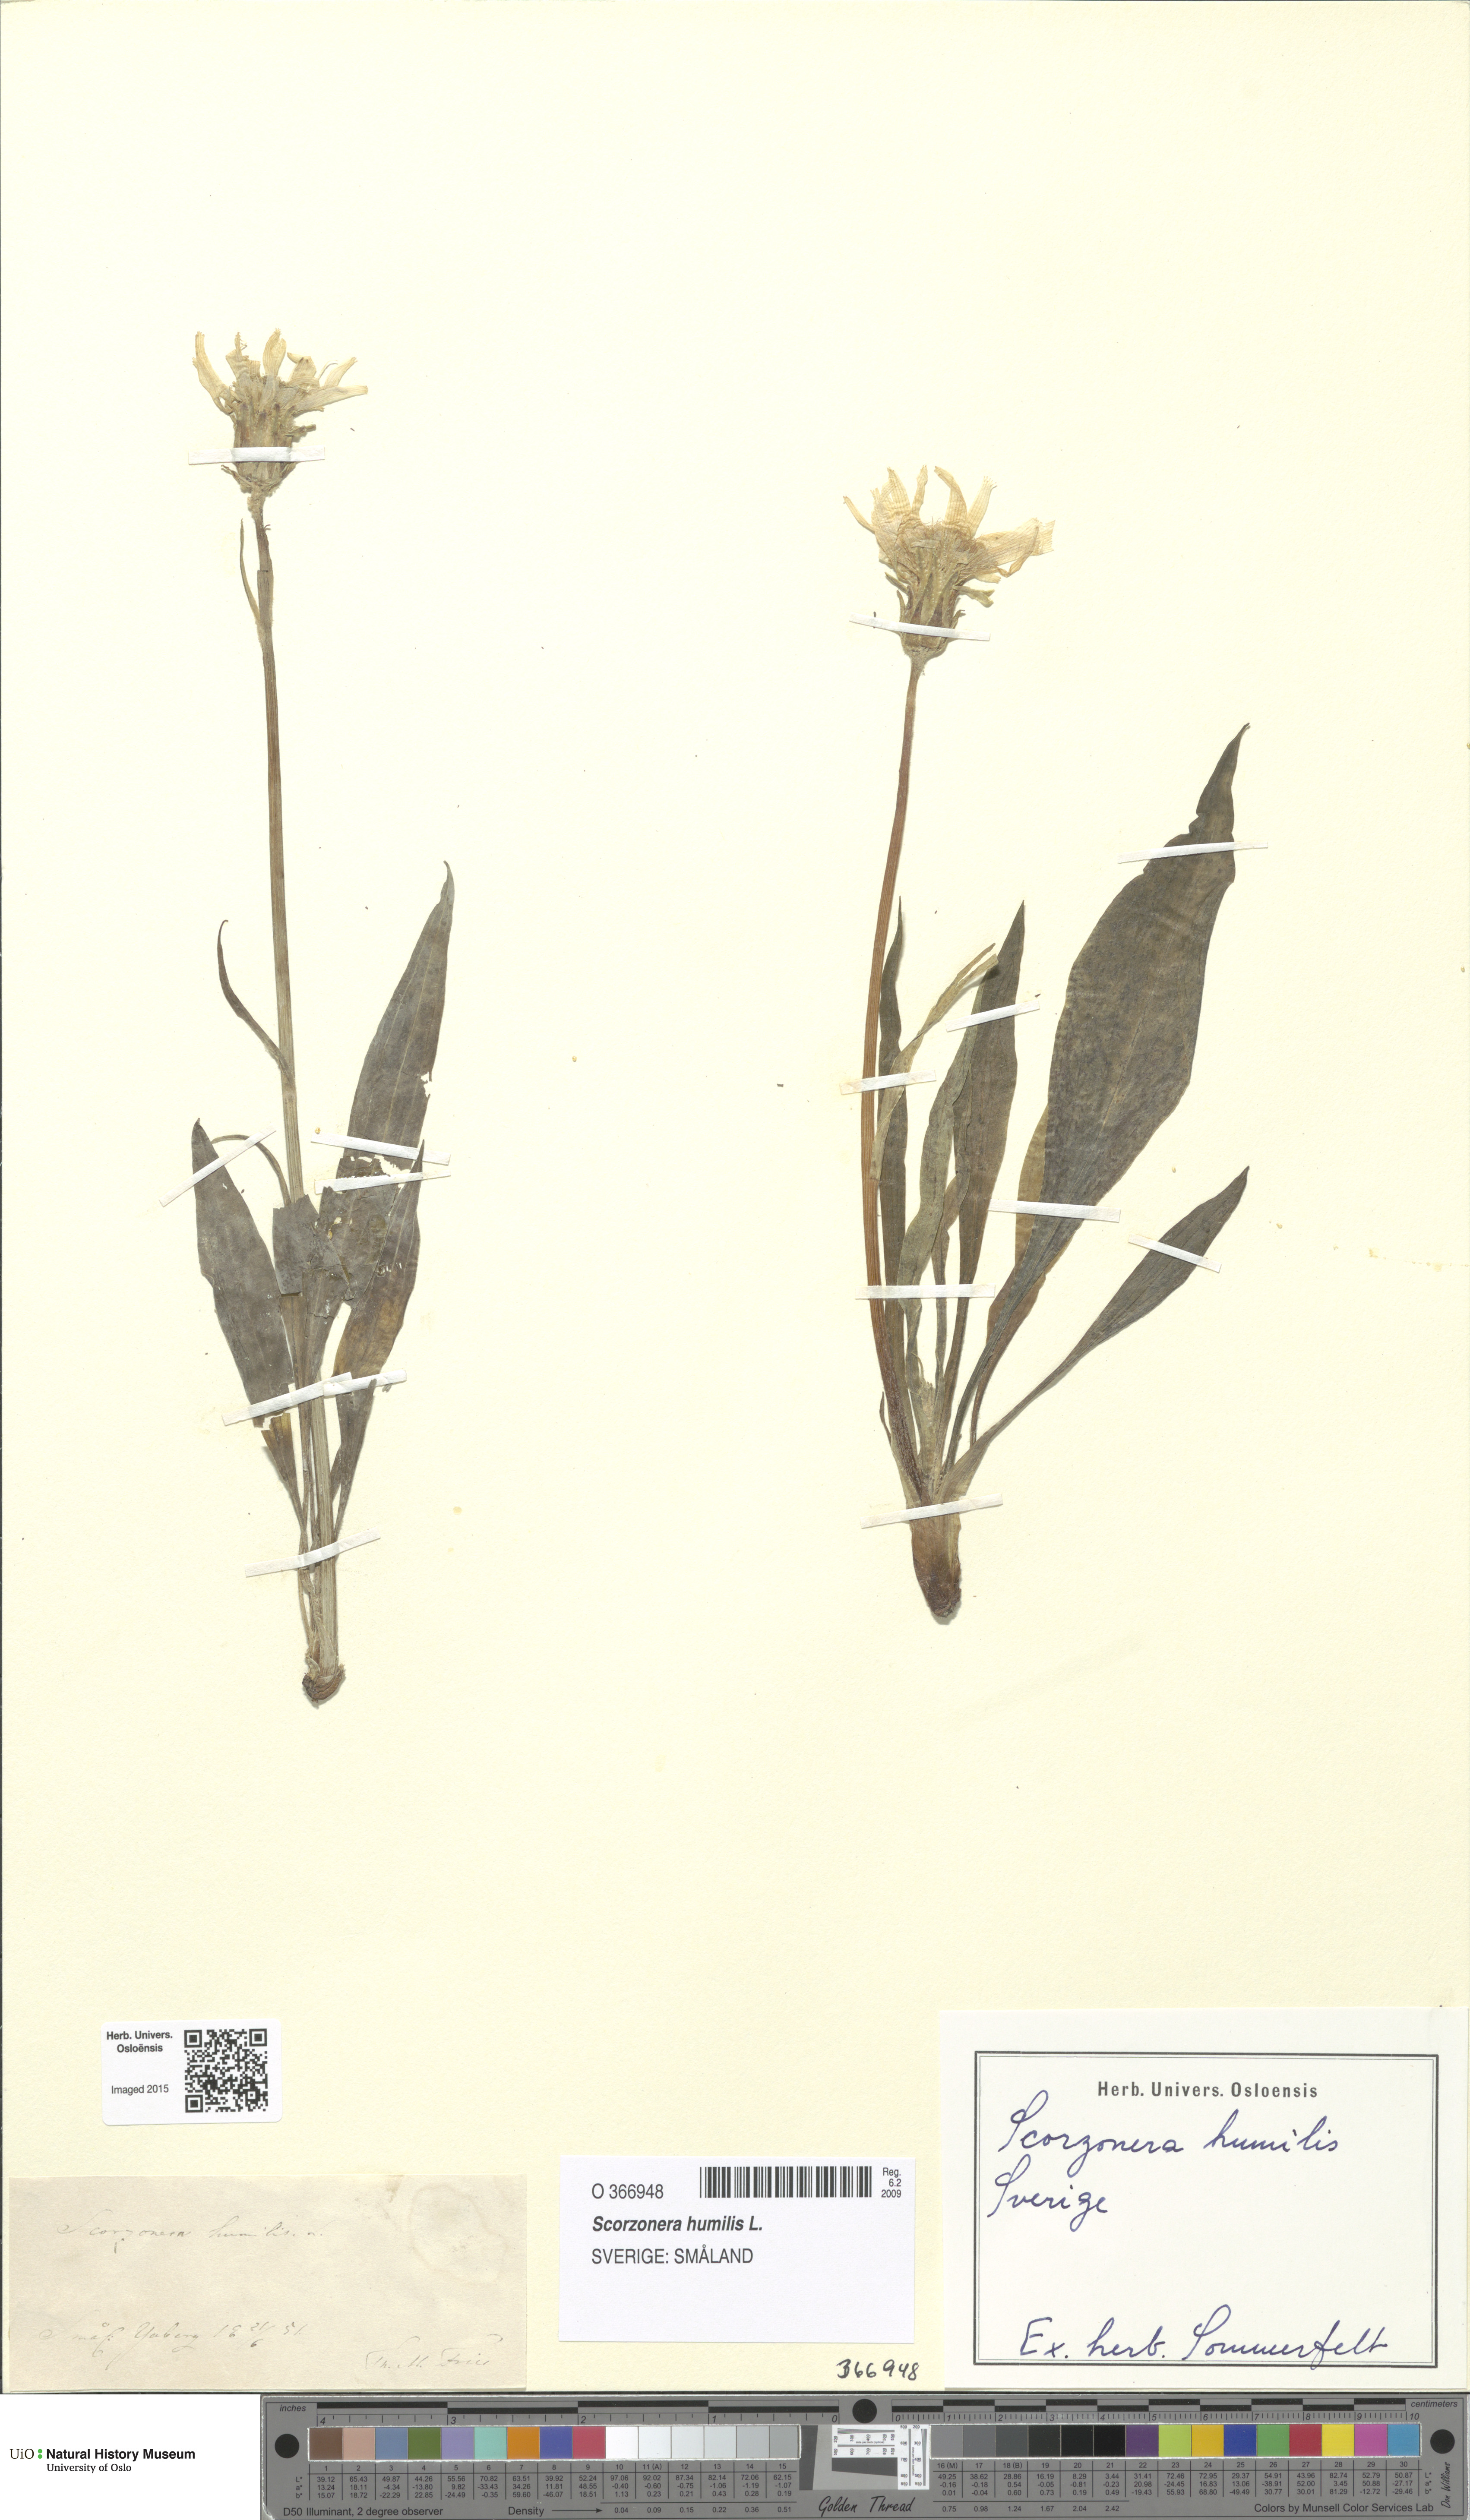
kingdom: Plantae
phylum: Tracheophyta
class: Magnoliopsida
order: Asterales
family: Asteraceae
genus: Scorzonera
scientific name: Scorzonera humilis
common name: Viper's-grass
